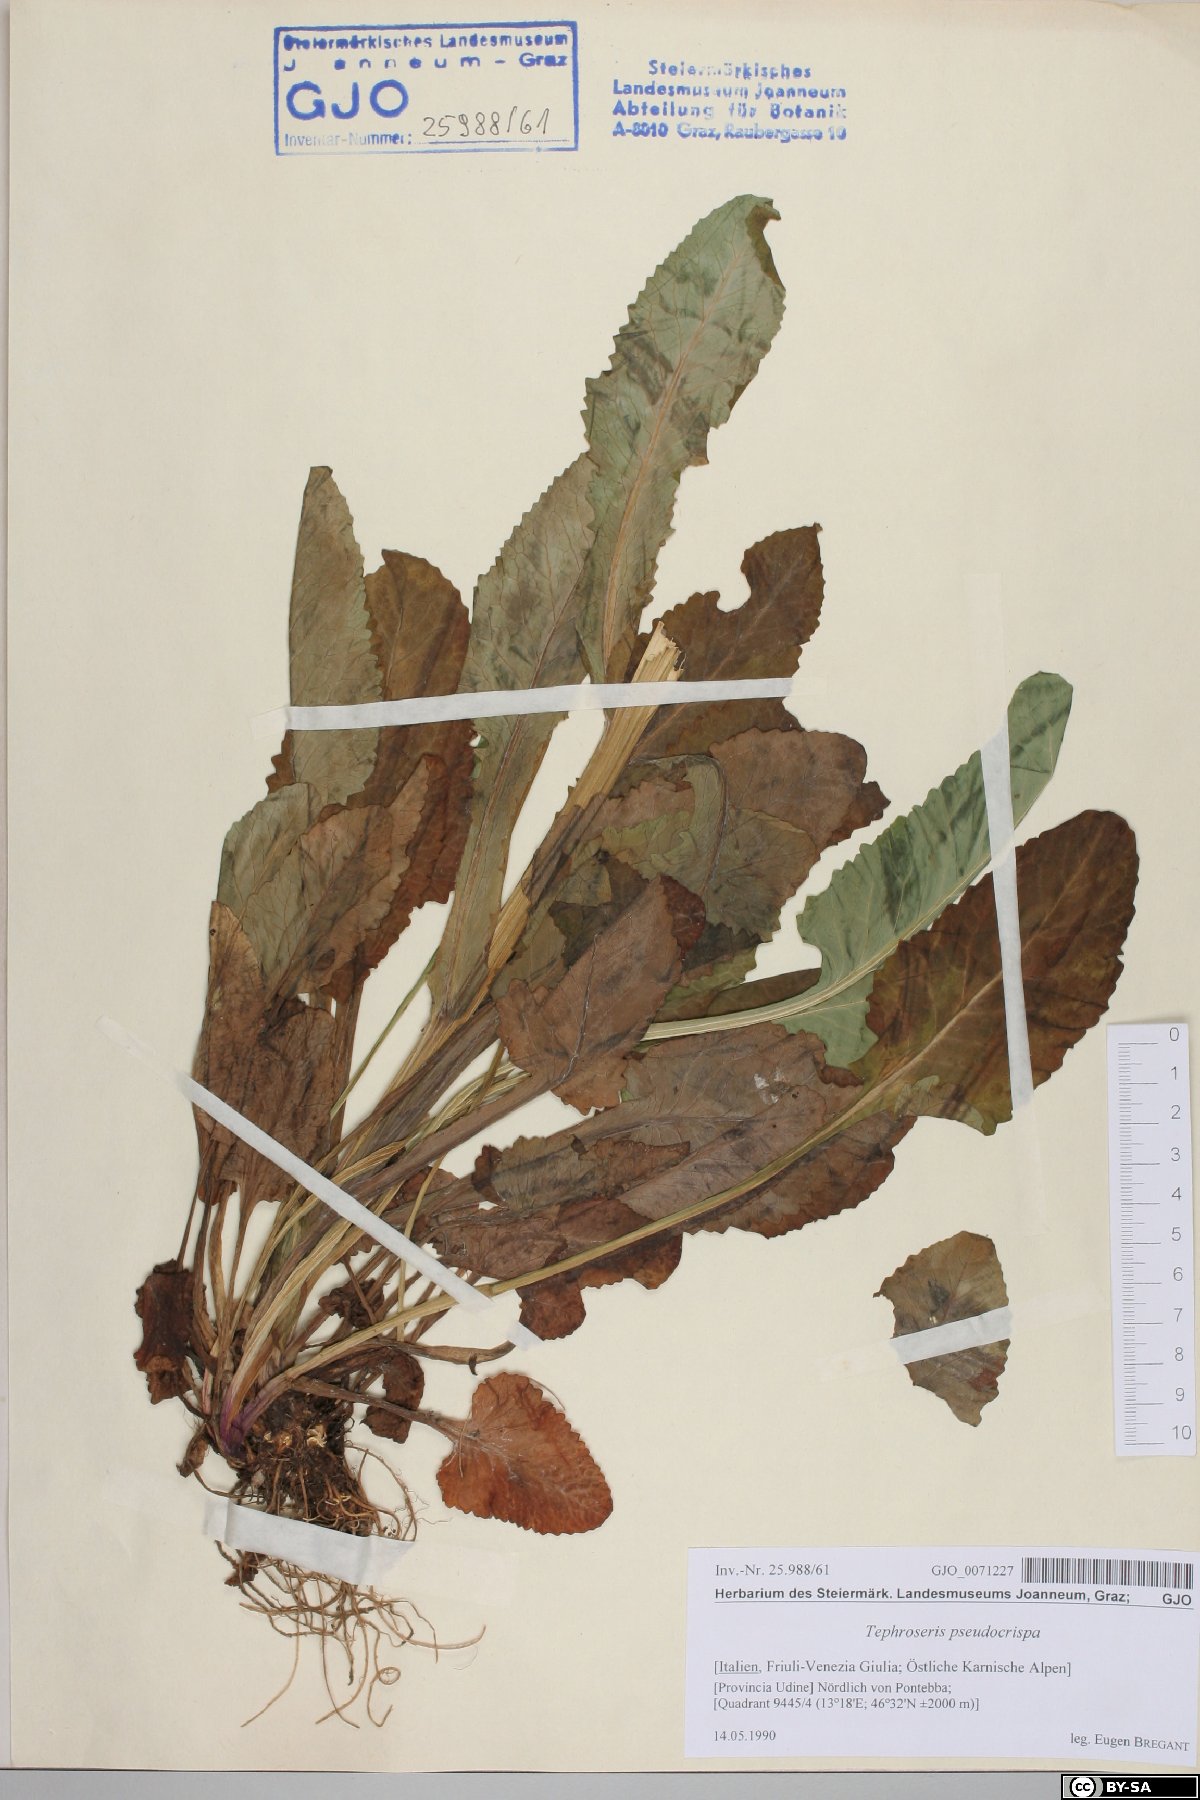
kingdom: Plantae
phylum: Tracheophyta
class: Magnoliopsida
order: Asterales
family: Asteraceae
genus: Tephroseris
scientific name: Tephroseris longifolia
